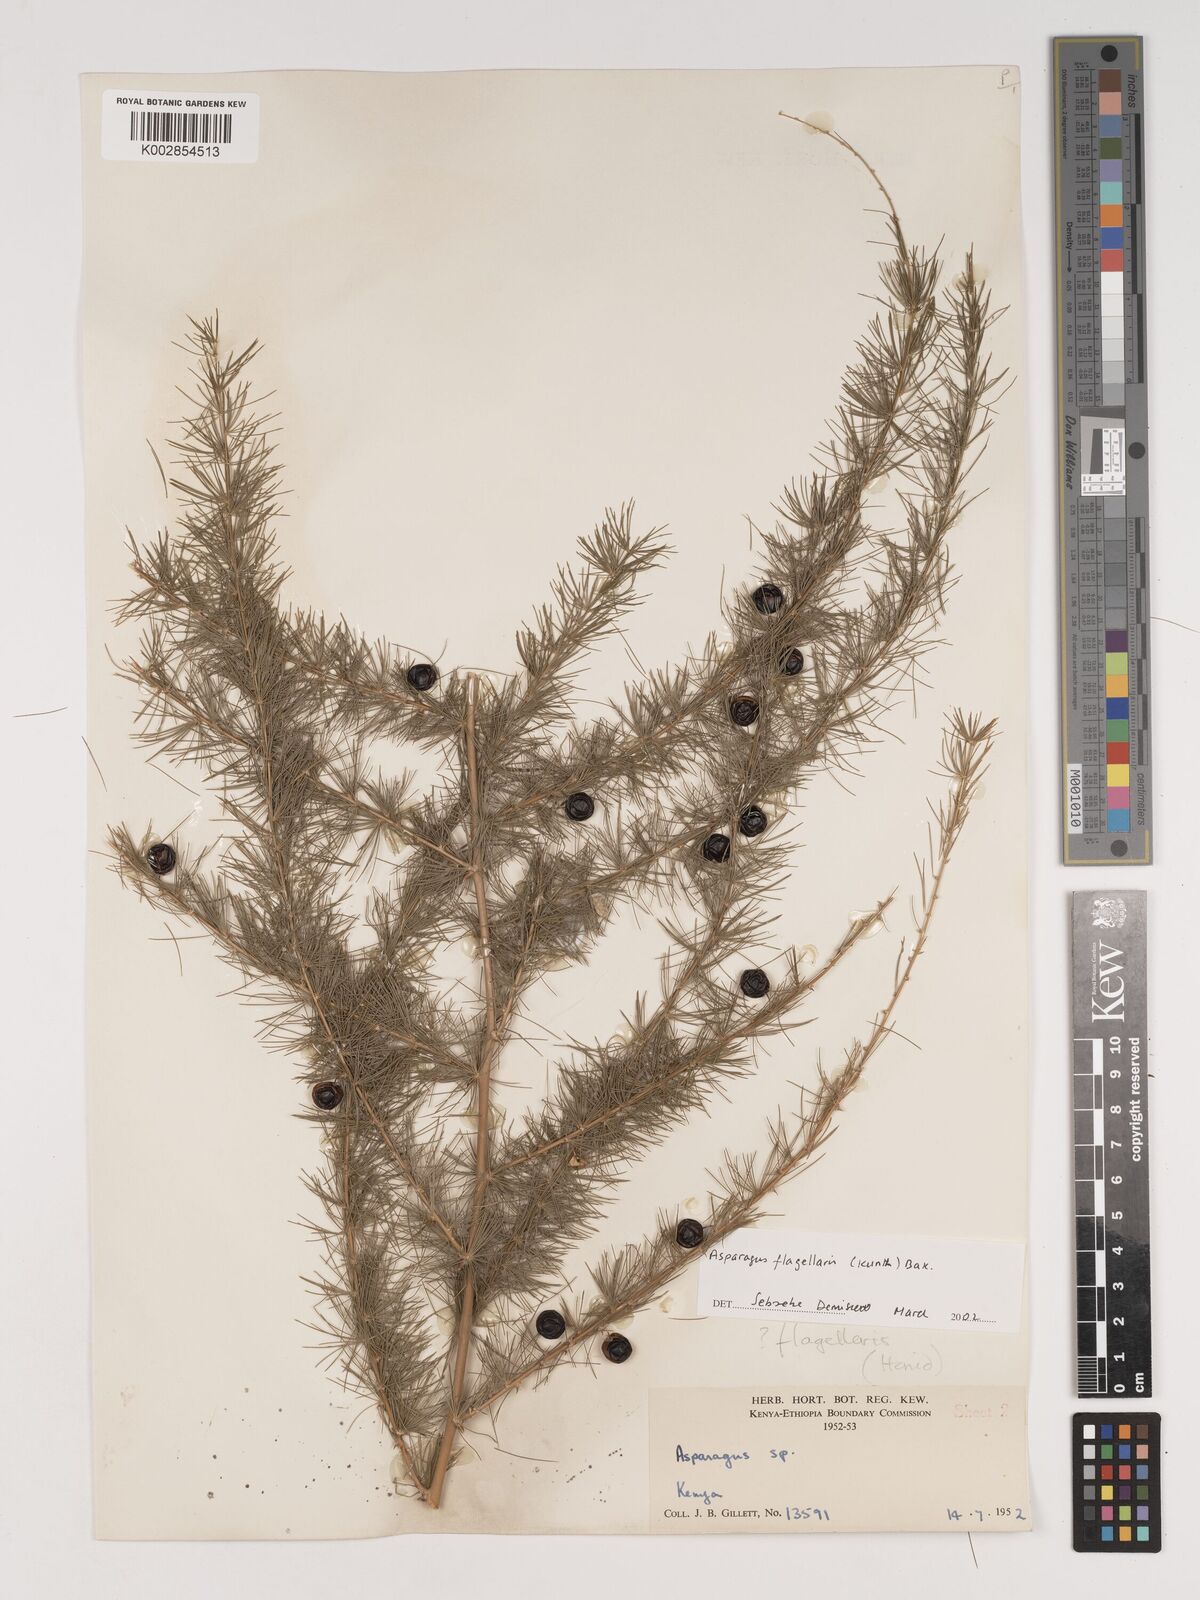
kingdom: Plantae
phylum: Tracheophyta
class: Liliopsida
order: Asparagales
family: Asparagaceae
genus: Asparagus
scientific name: Asparagus flagellaris
